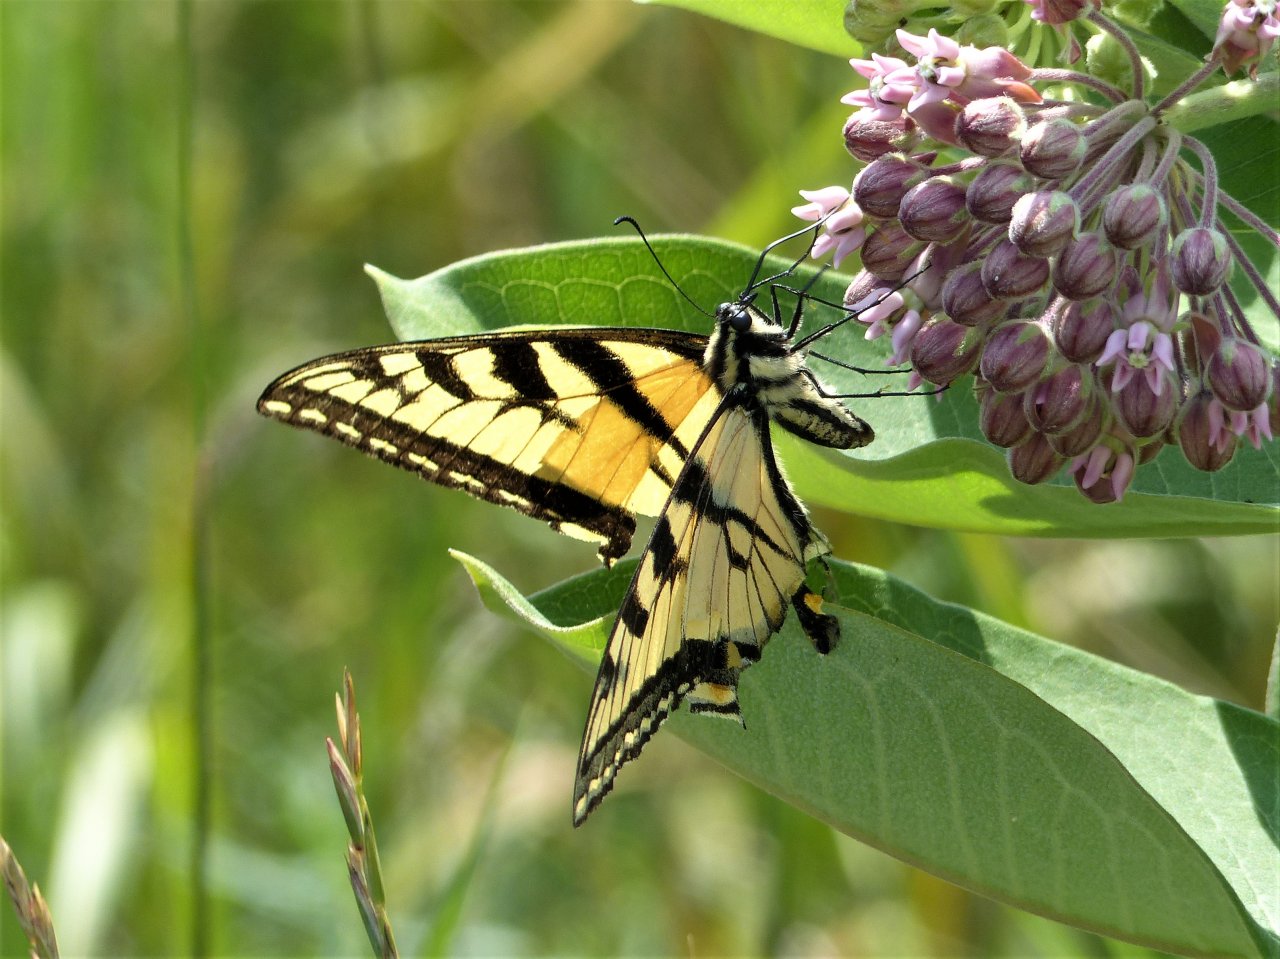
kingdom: Animalia
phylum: Arthropoda
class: Insecta
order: Lepidoptera
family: Papilionidae
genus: Pterourus
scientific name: Pterourus glaucus
